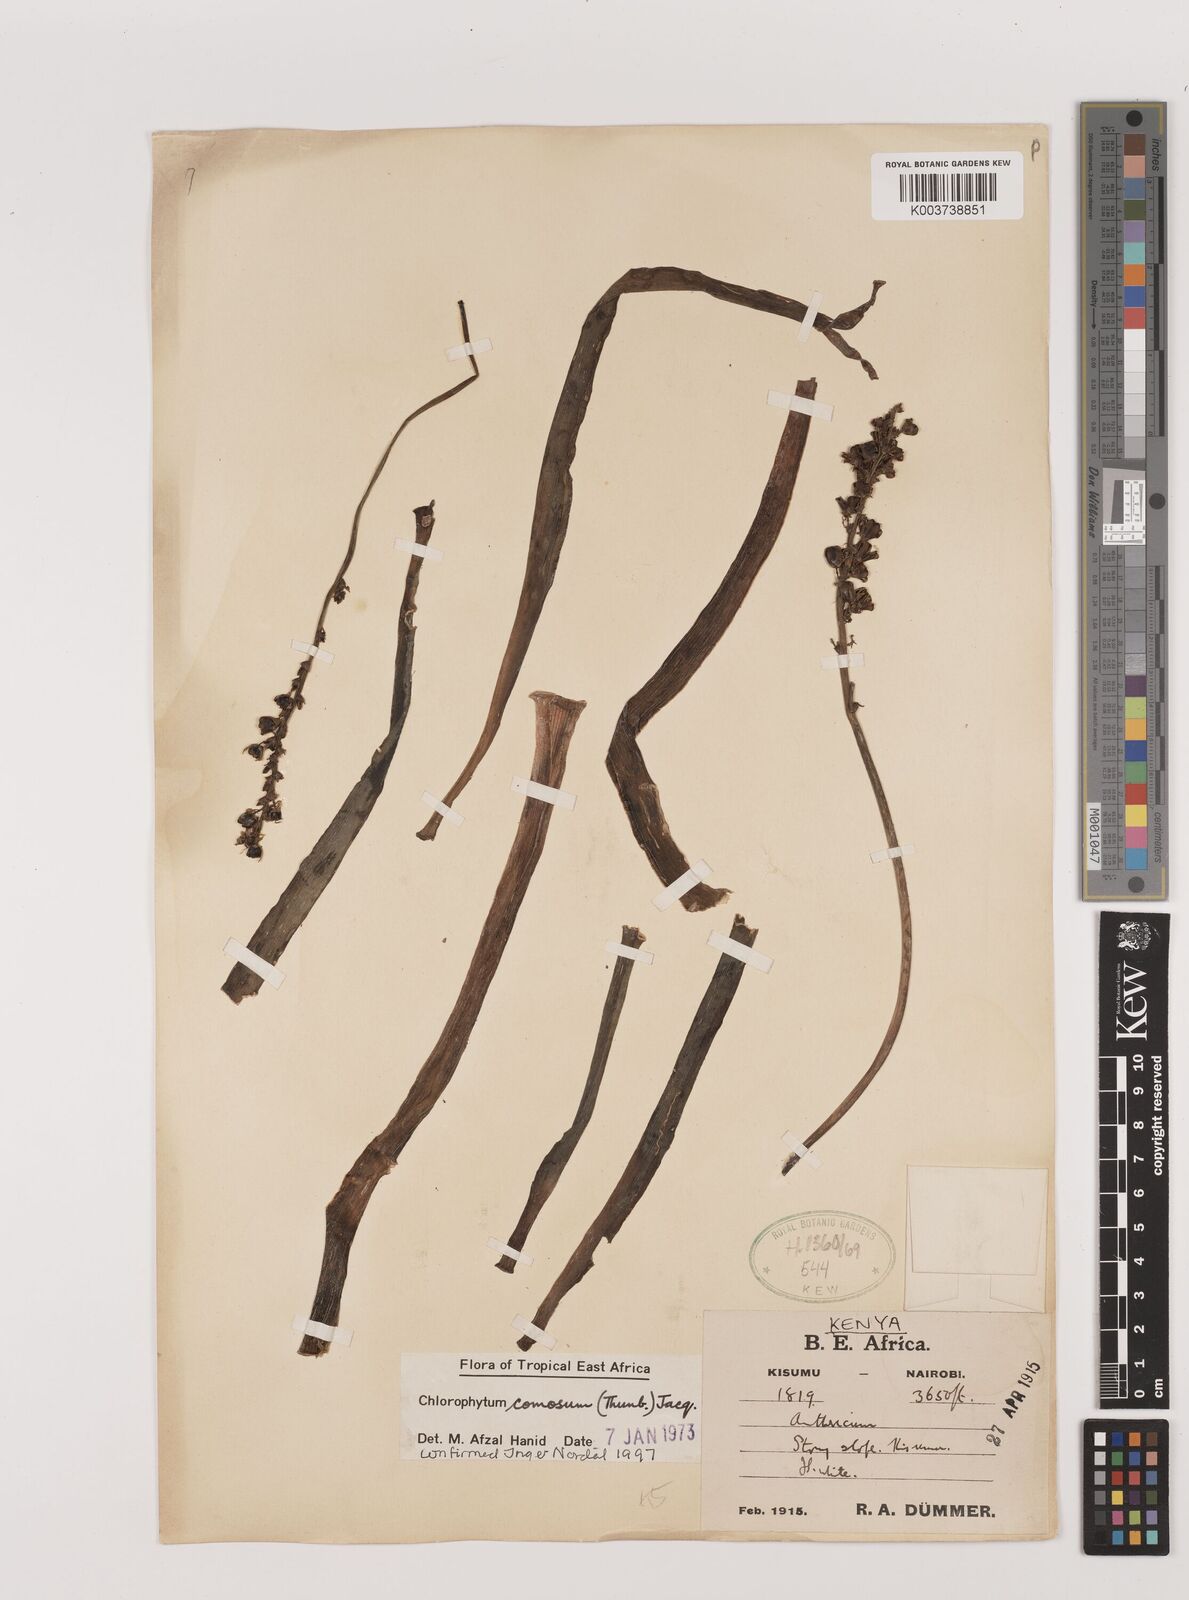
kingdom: Plantae
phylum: Tracheophyta
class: Liliopsida
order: Asparagales
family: Asparagaceae
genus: Chlorophytum
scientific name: Chlorophytum comosum
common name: Spider plant
